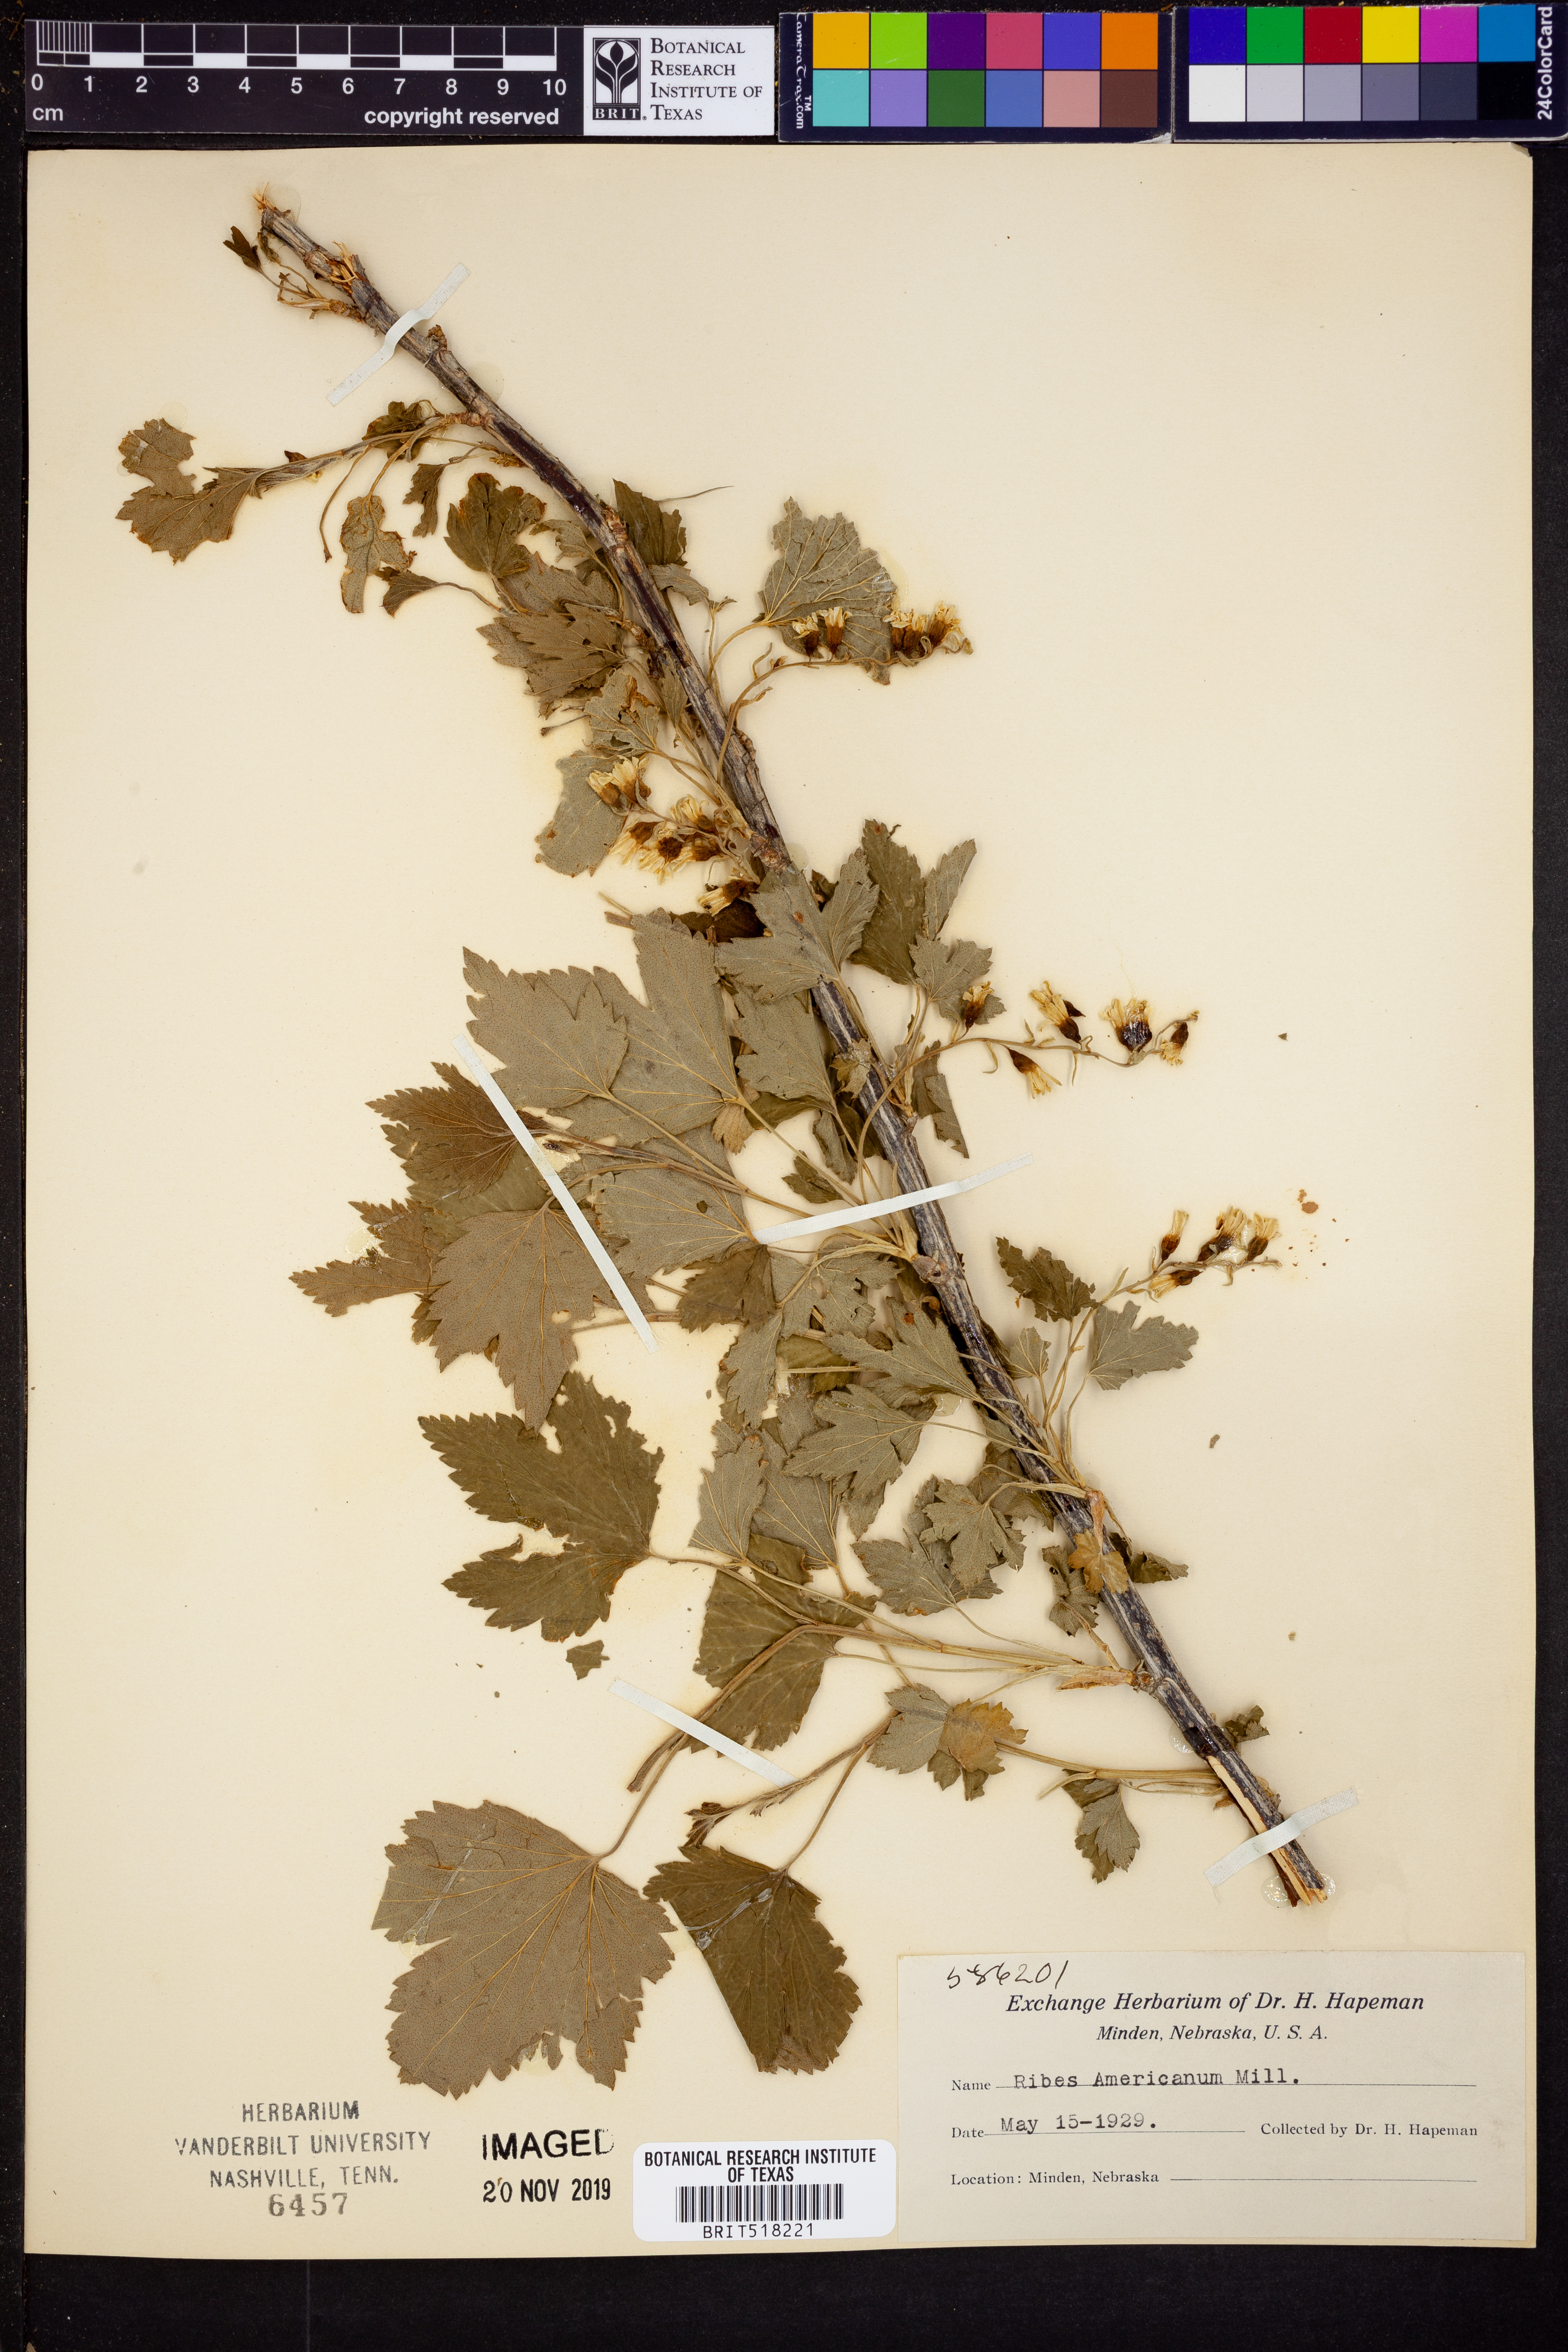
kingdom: Plantae
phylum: Tracheophyta
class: Magnoliopsida
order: Saxifragales
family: Grossulariaceae
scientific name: Grossulariaceae
